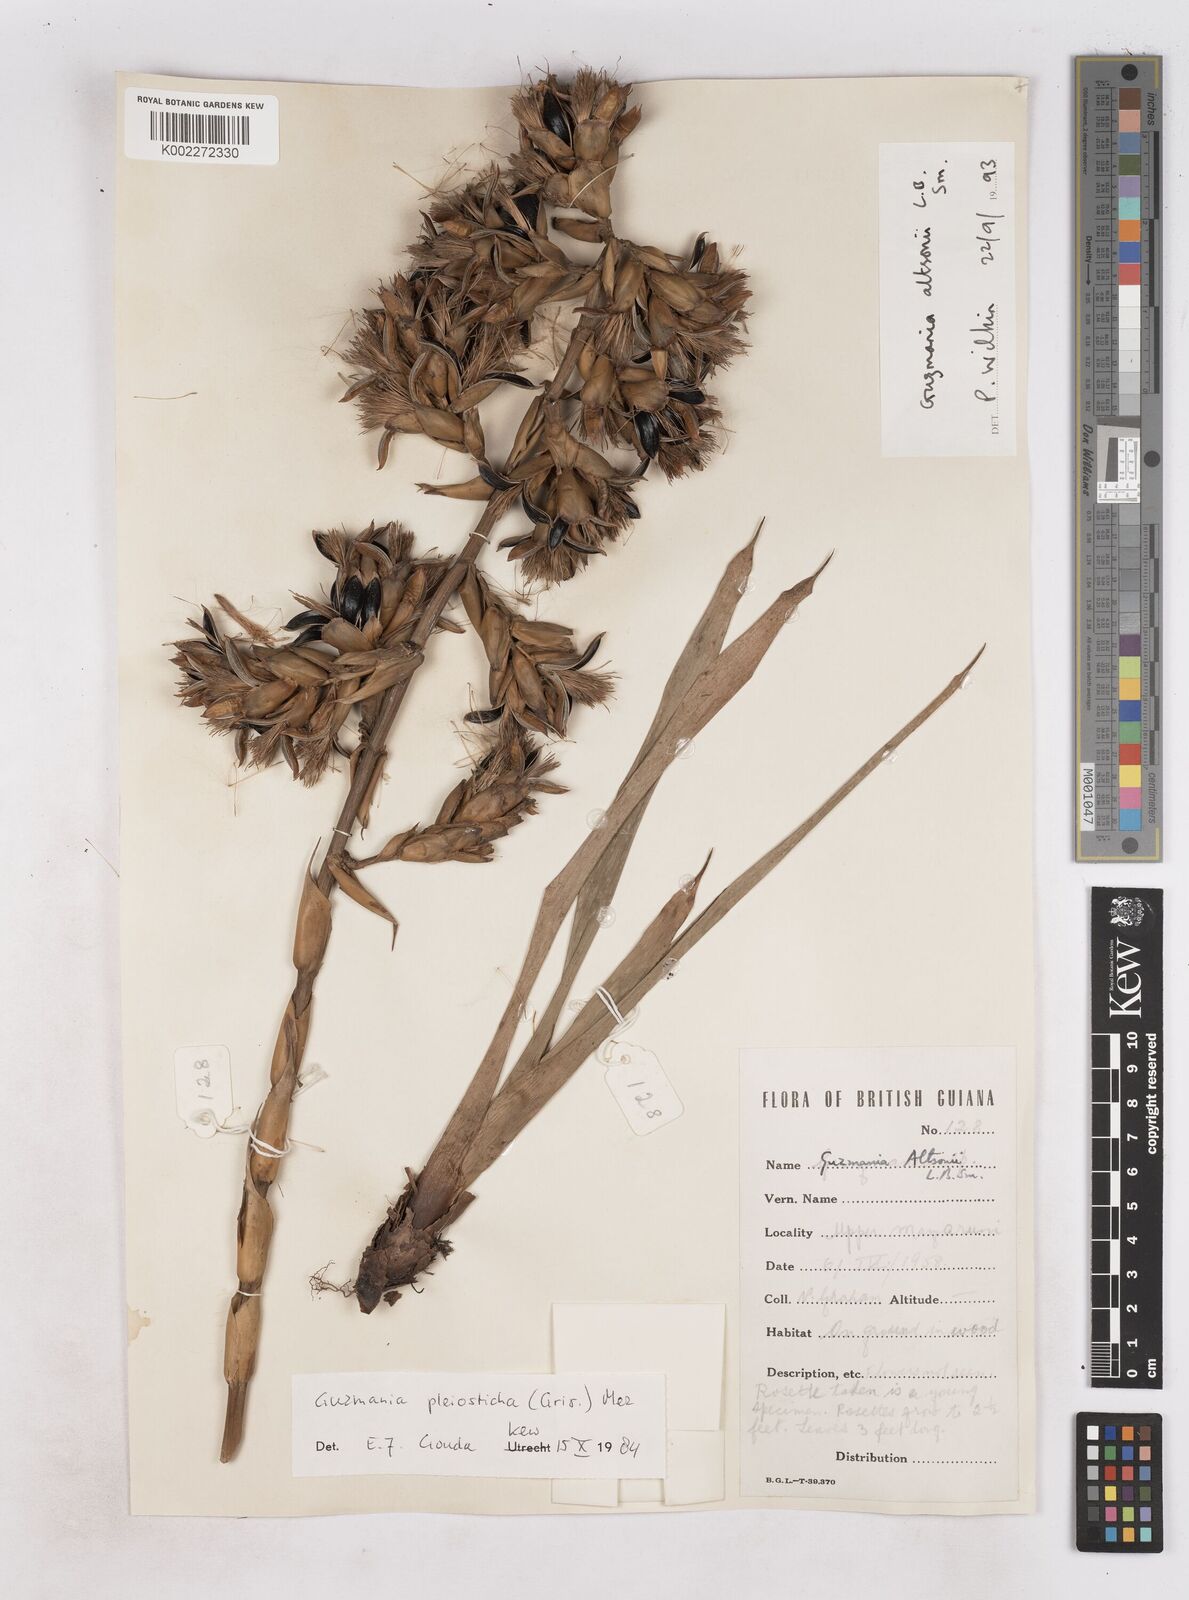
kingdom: Plantae
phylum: Tracheophyta
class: Liliopsida
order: Poales
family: Bromeliaceae
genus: Guzmania
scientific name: Guzmania altsonii
